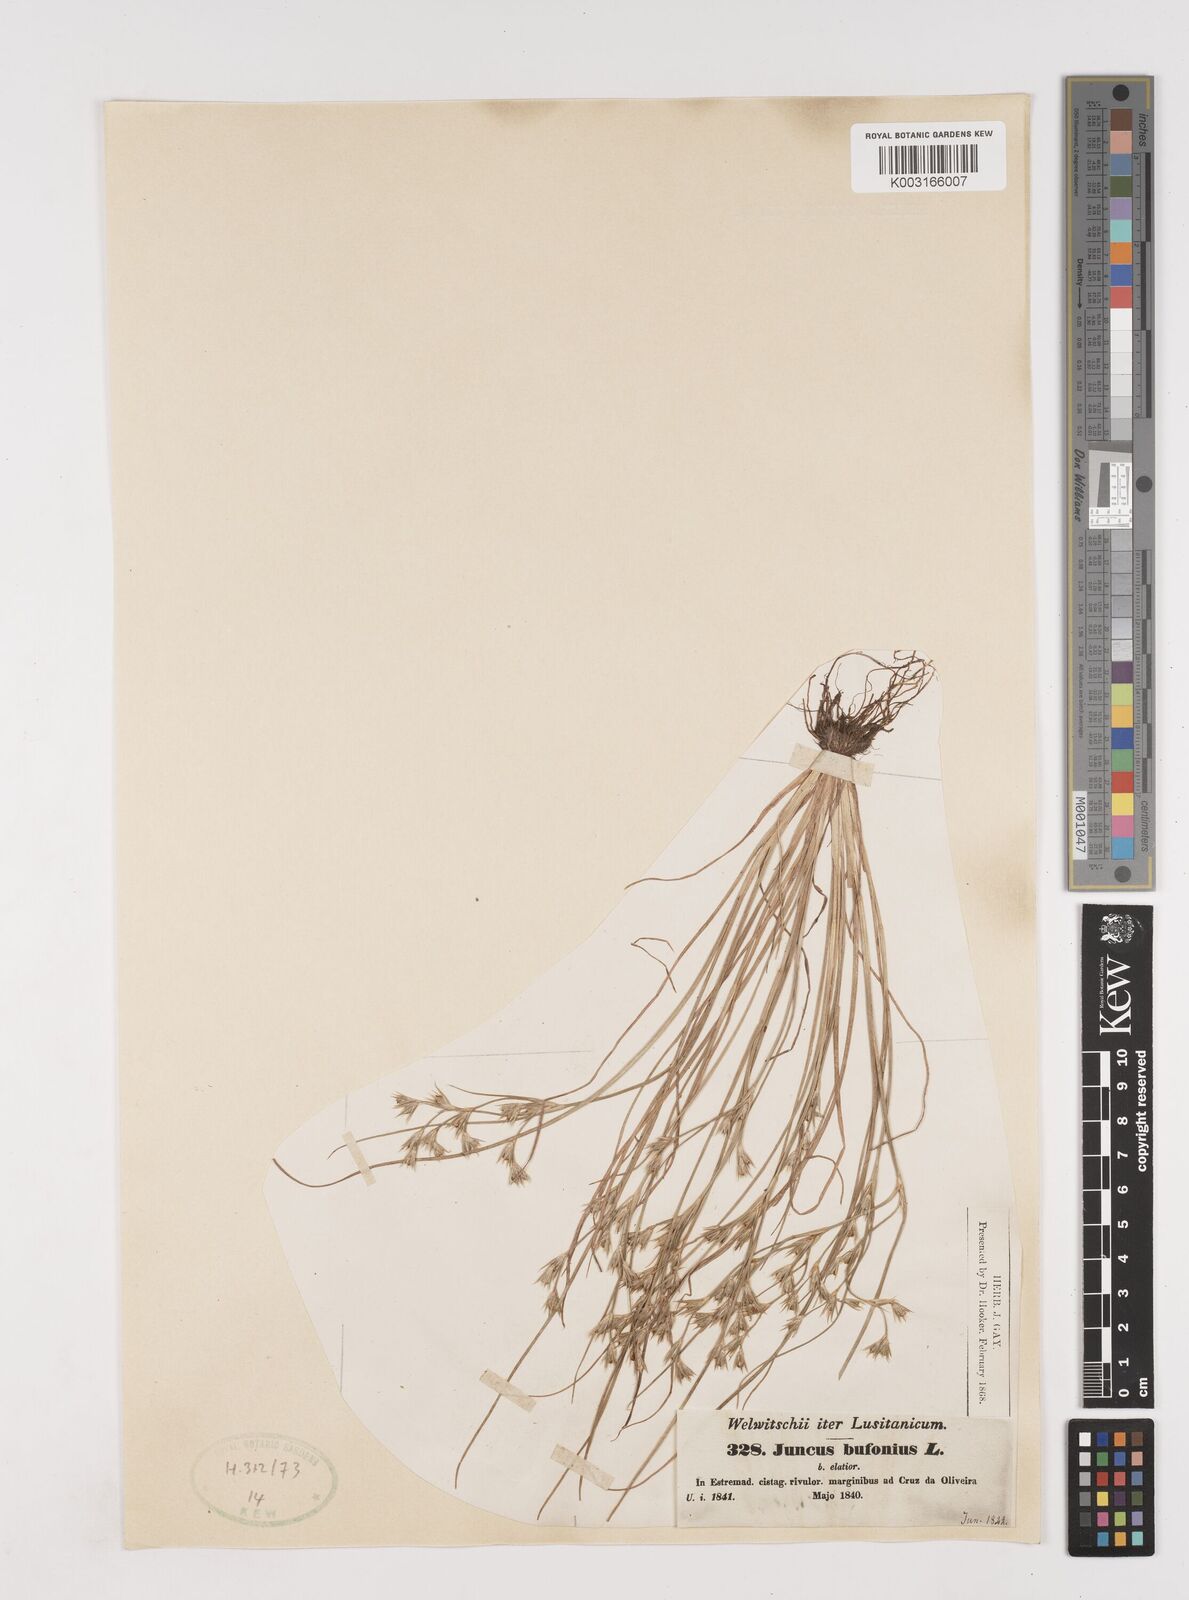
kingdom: Plantae
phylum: Tracheophyta
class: Liliopsida
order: Poales
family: Juncaceae
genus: Juncus
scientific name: Juncus bufonius
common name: Toad rush
